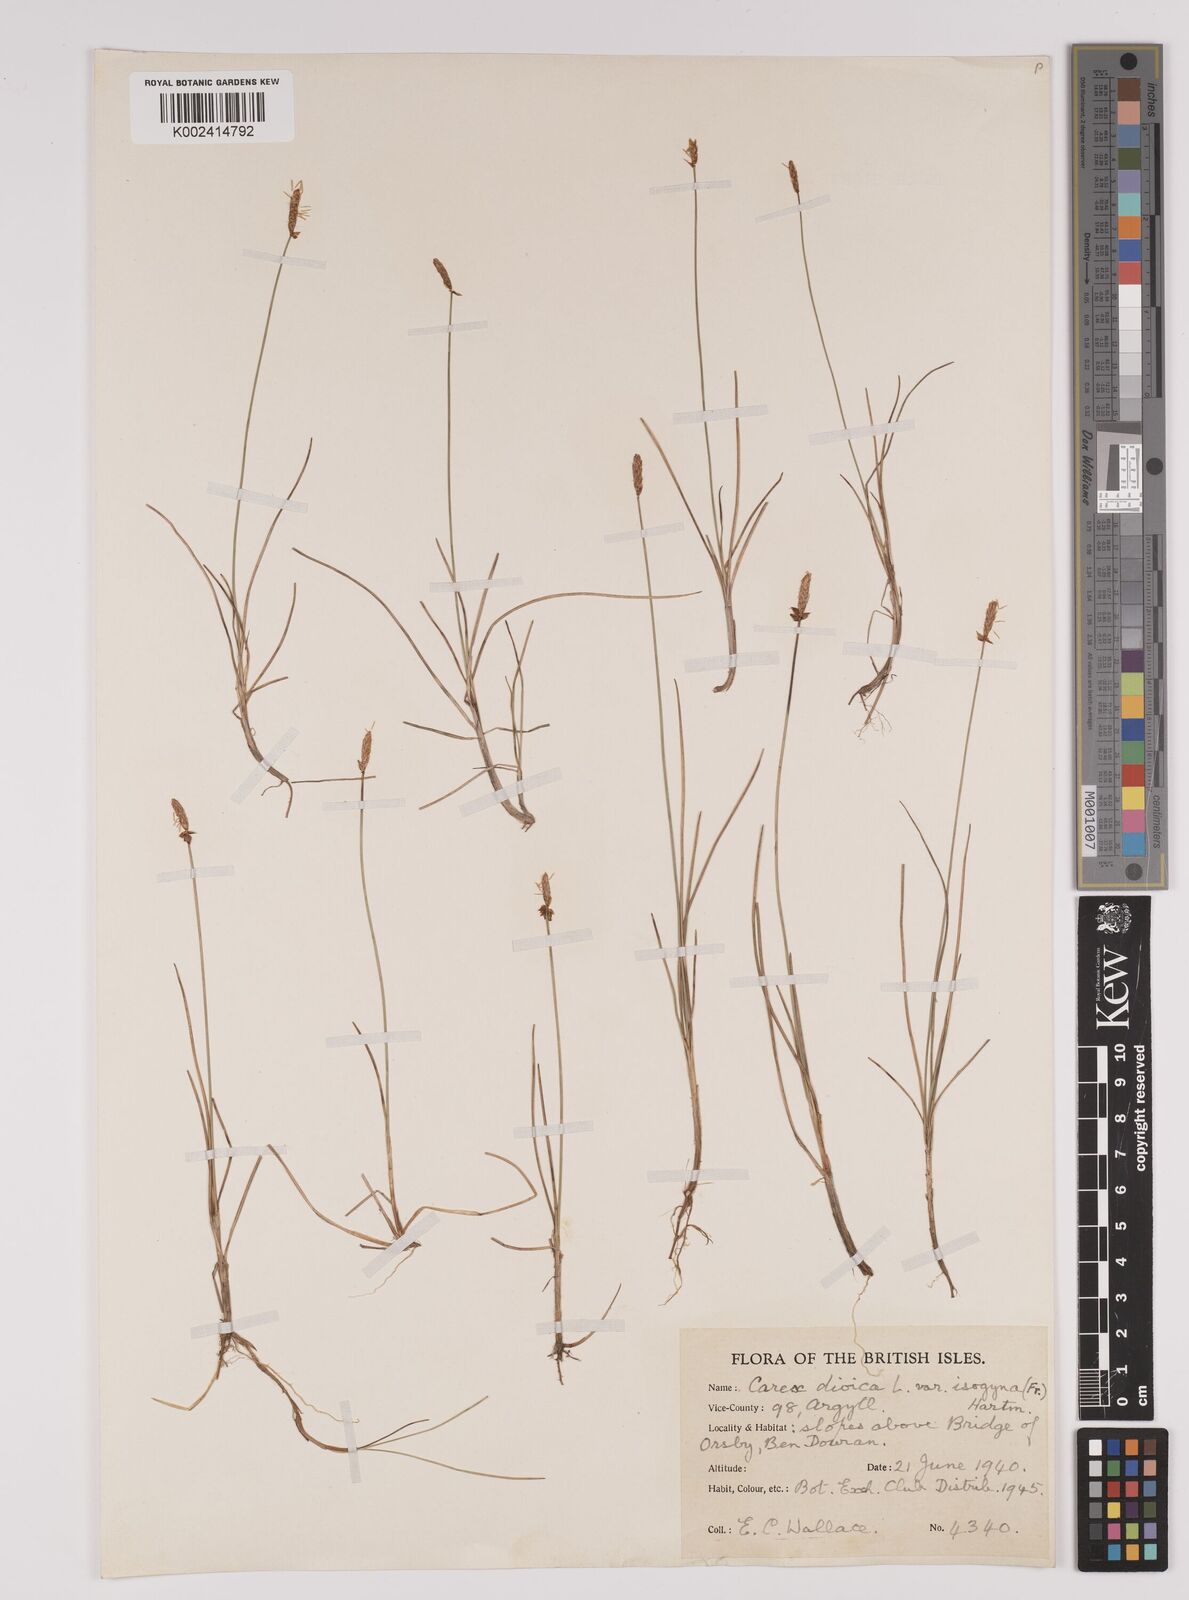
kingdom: Plantae
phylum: Tracheophyta
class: Liliopsida
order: Poales
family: Cyperaceae
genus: Carex
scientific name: Carex dioica
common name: Dioecious sedge
